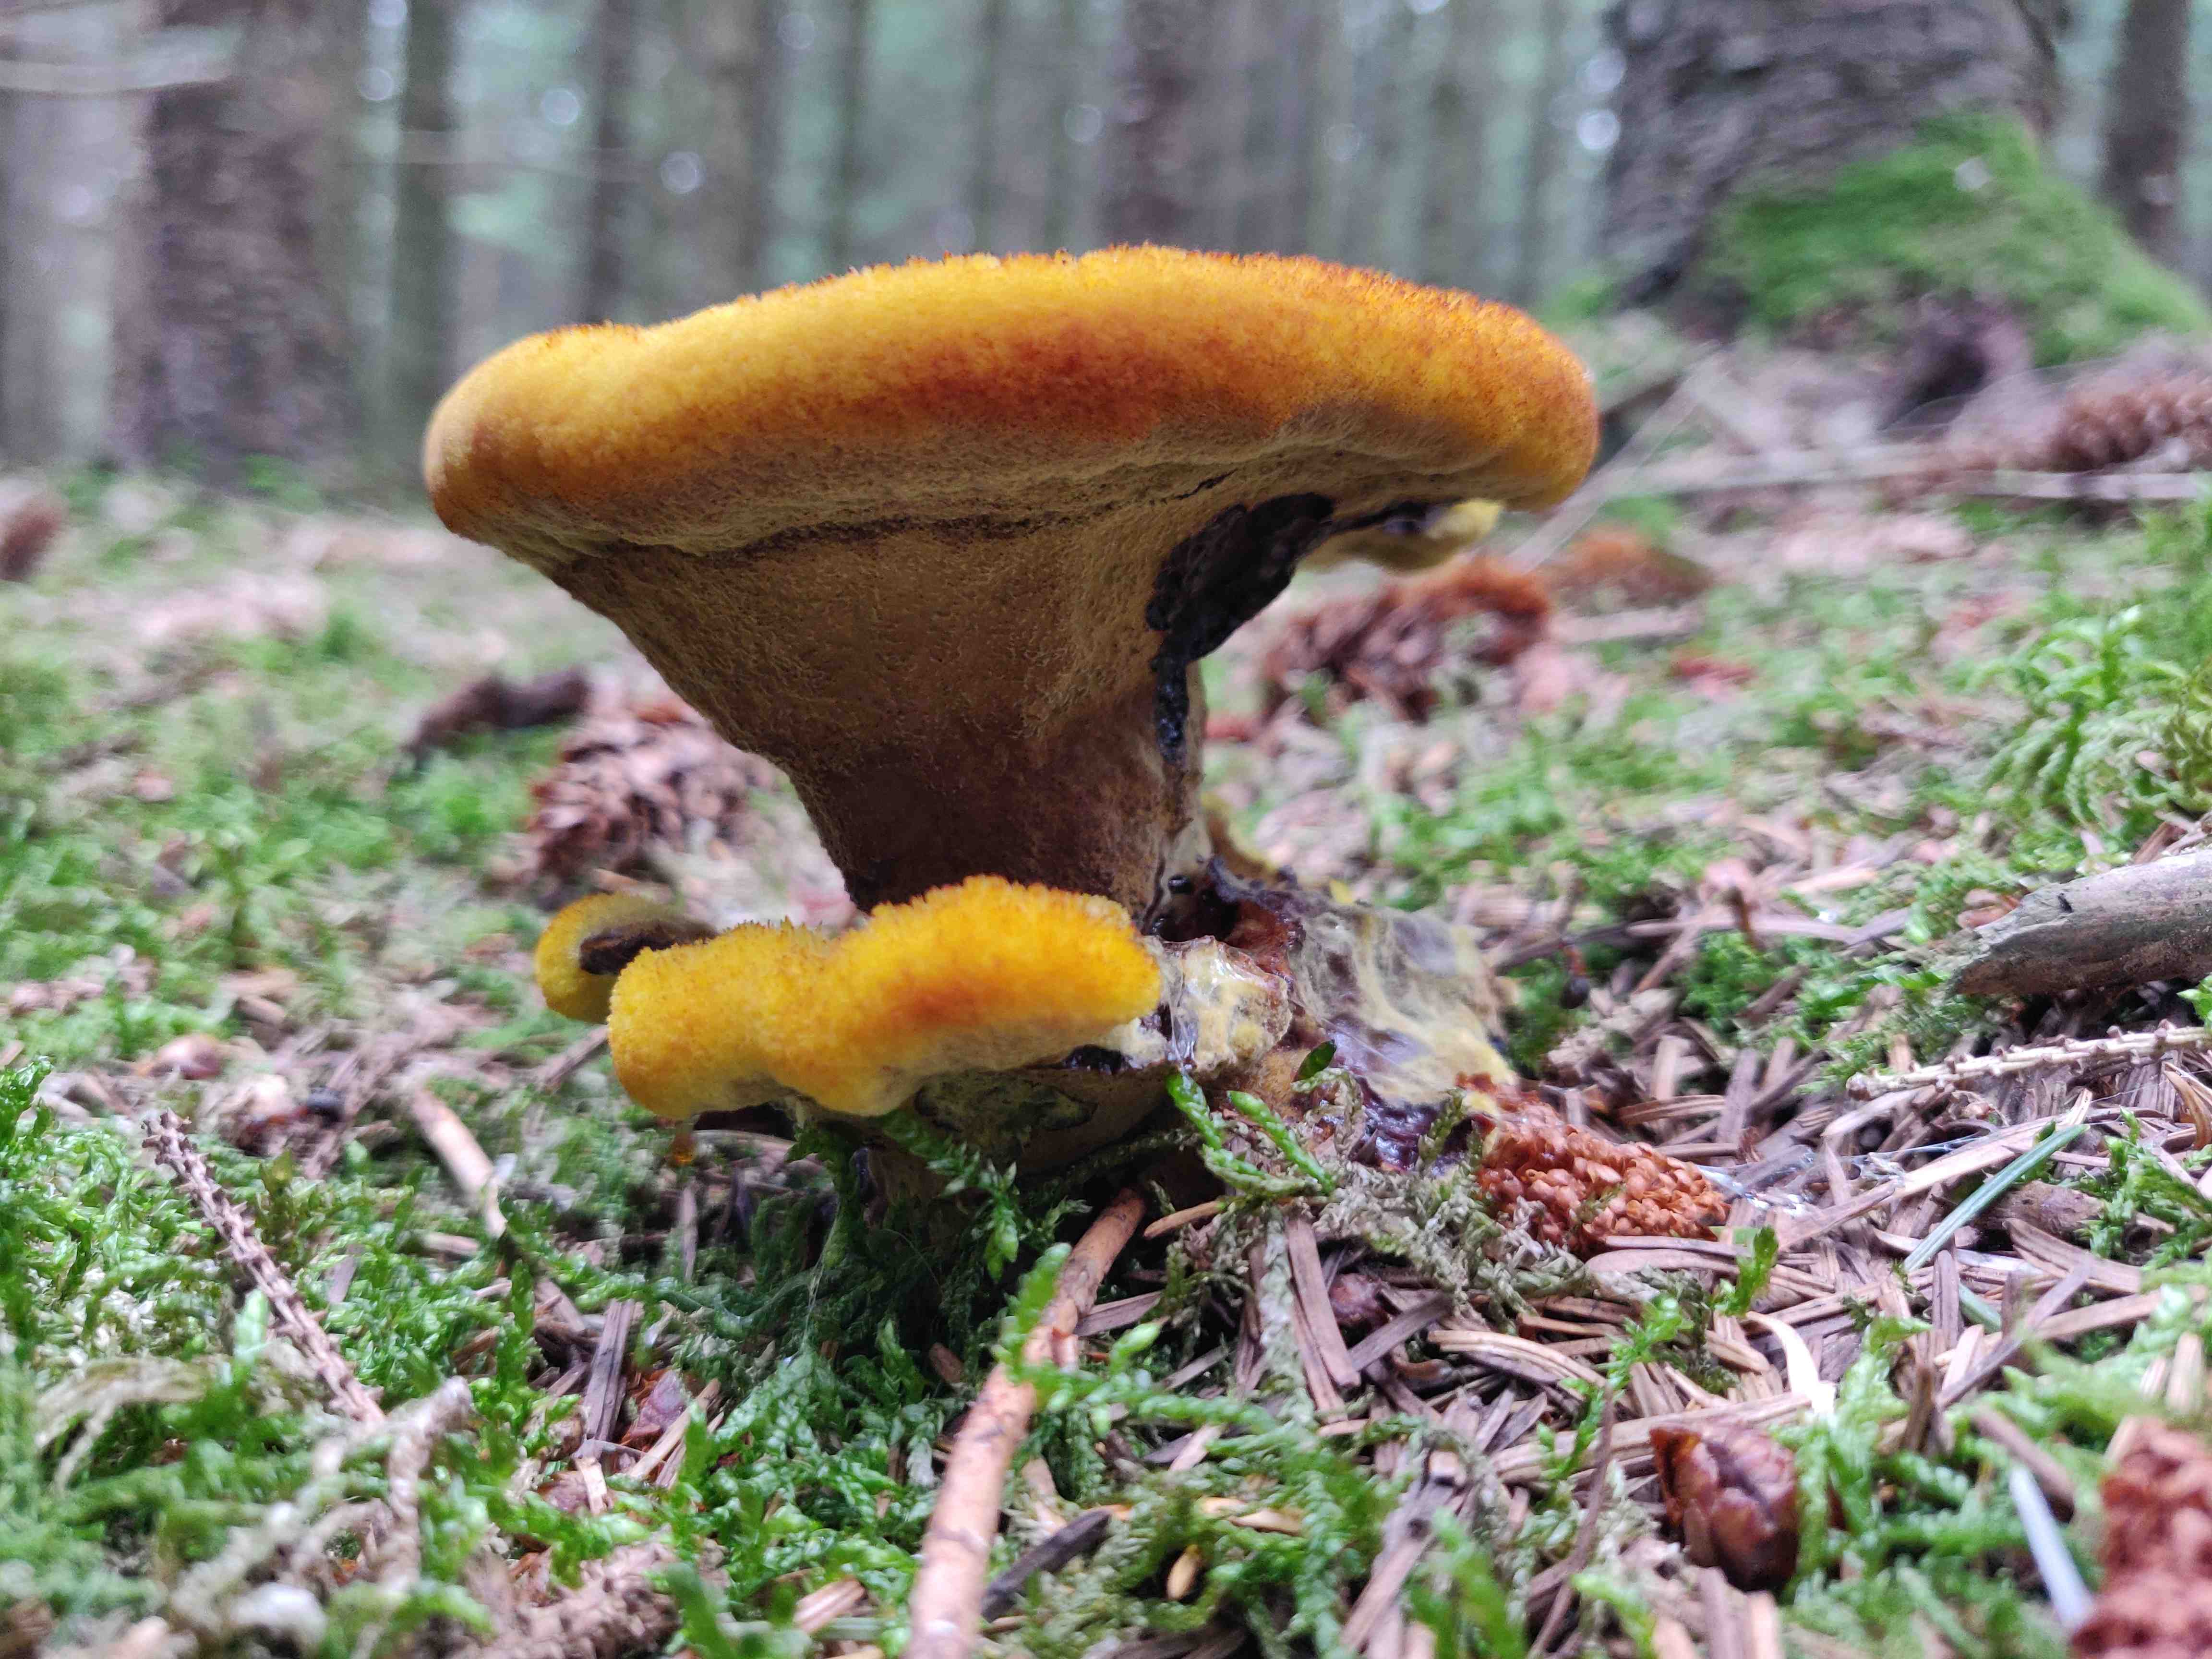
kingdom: Fungi
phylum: Basidiomycota
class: Agaricomycetes
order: Polyporales
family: Laetiporaceae
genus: Phaeolus
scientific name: Phaeolus schweinitzii
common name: brunporesvamp
